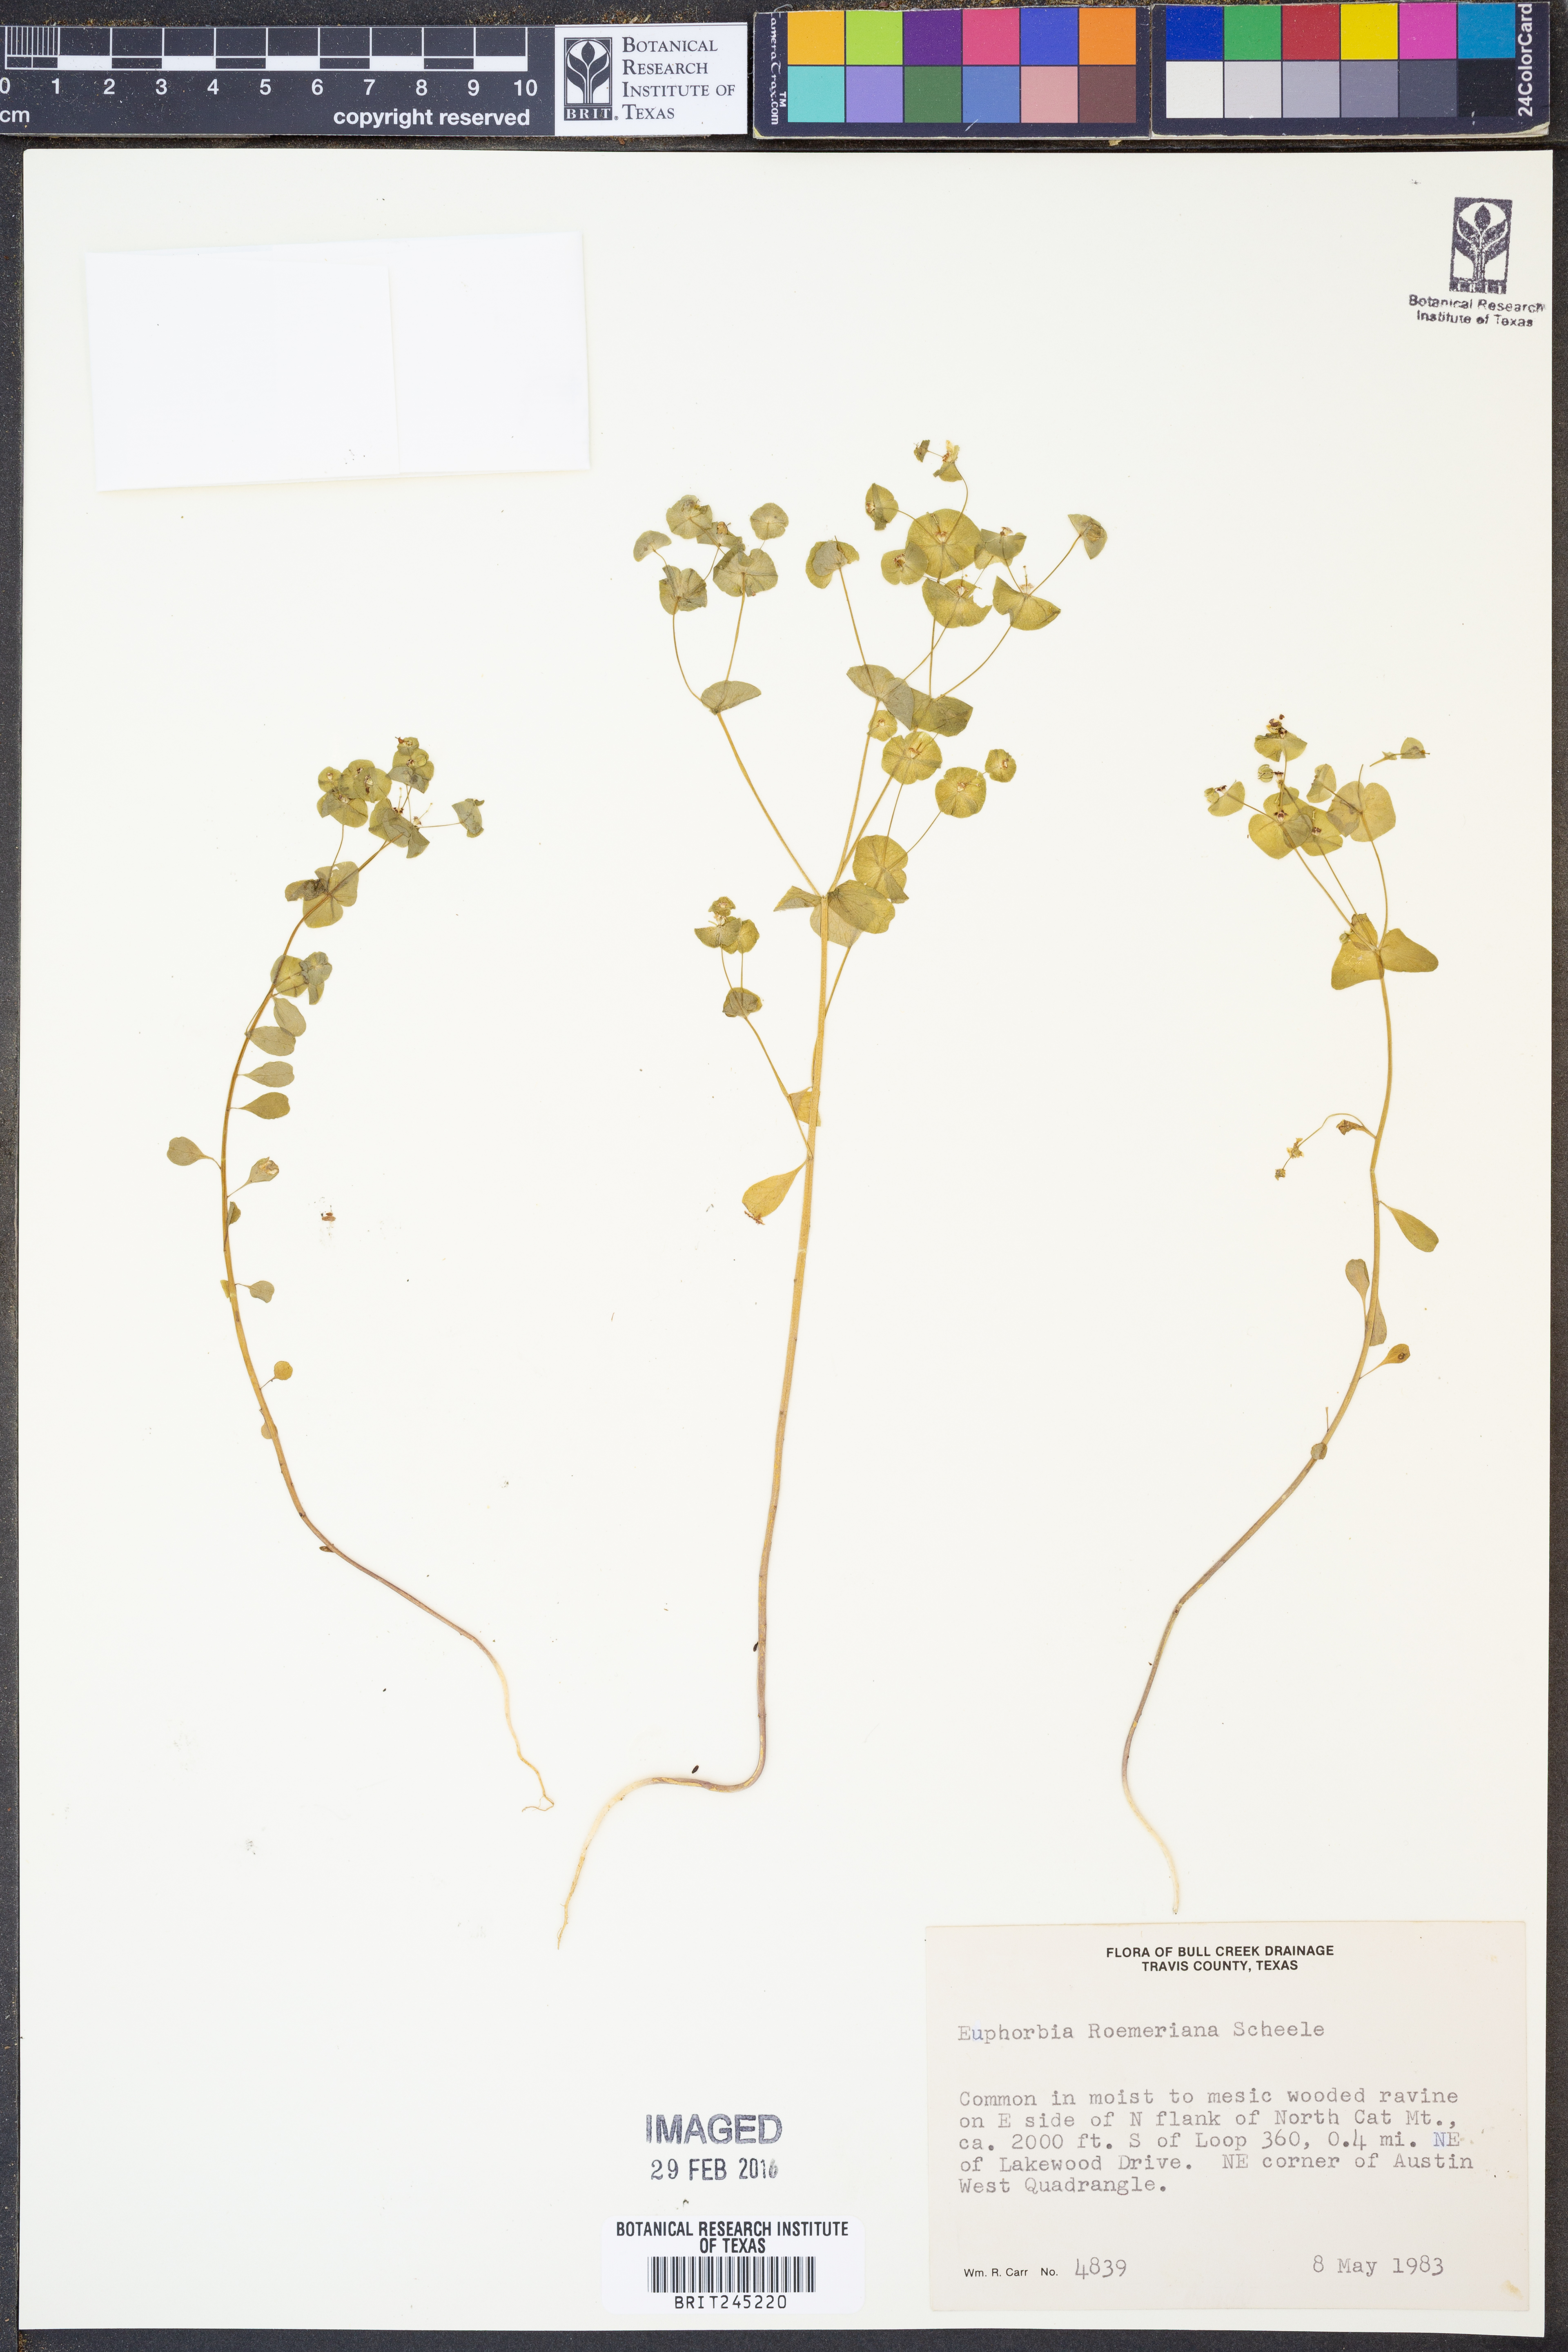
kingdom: Plantae
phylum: Tracheophyta
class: Magnoliopsida
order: Malpighiales
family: Euphorbiaceae
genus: Euphorbia
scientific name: Euphorbia roemeriana
